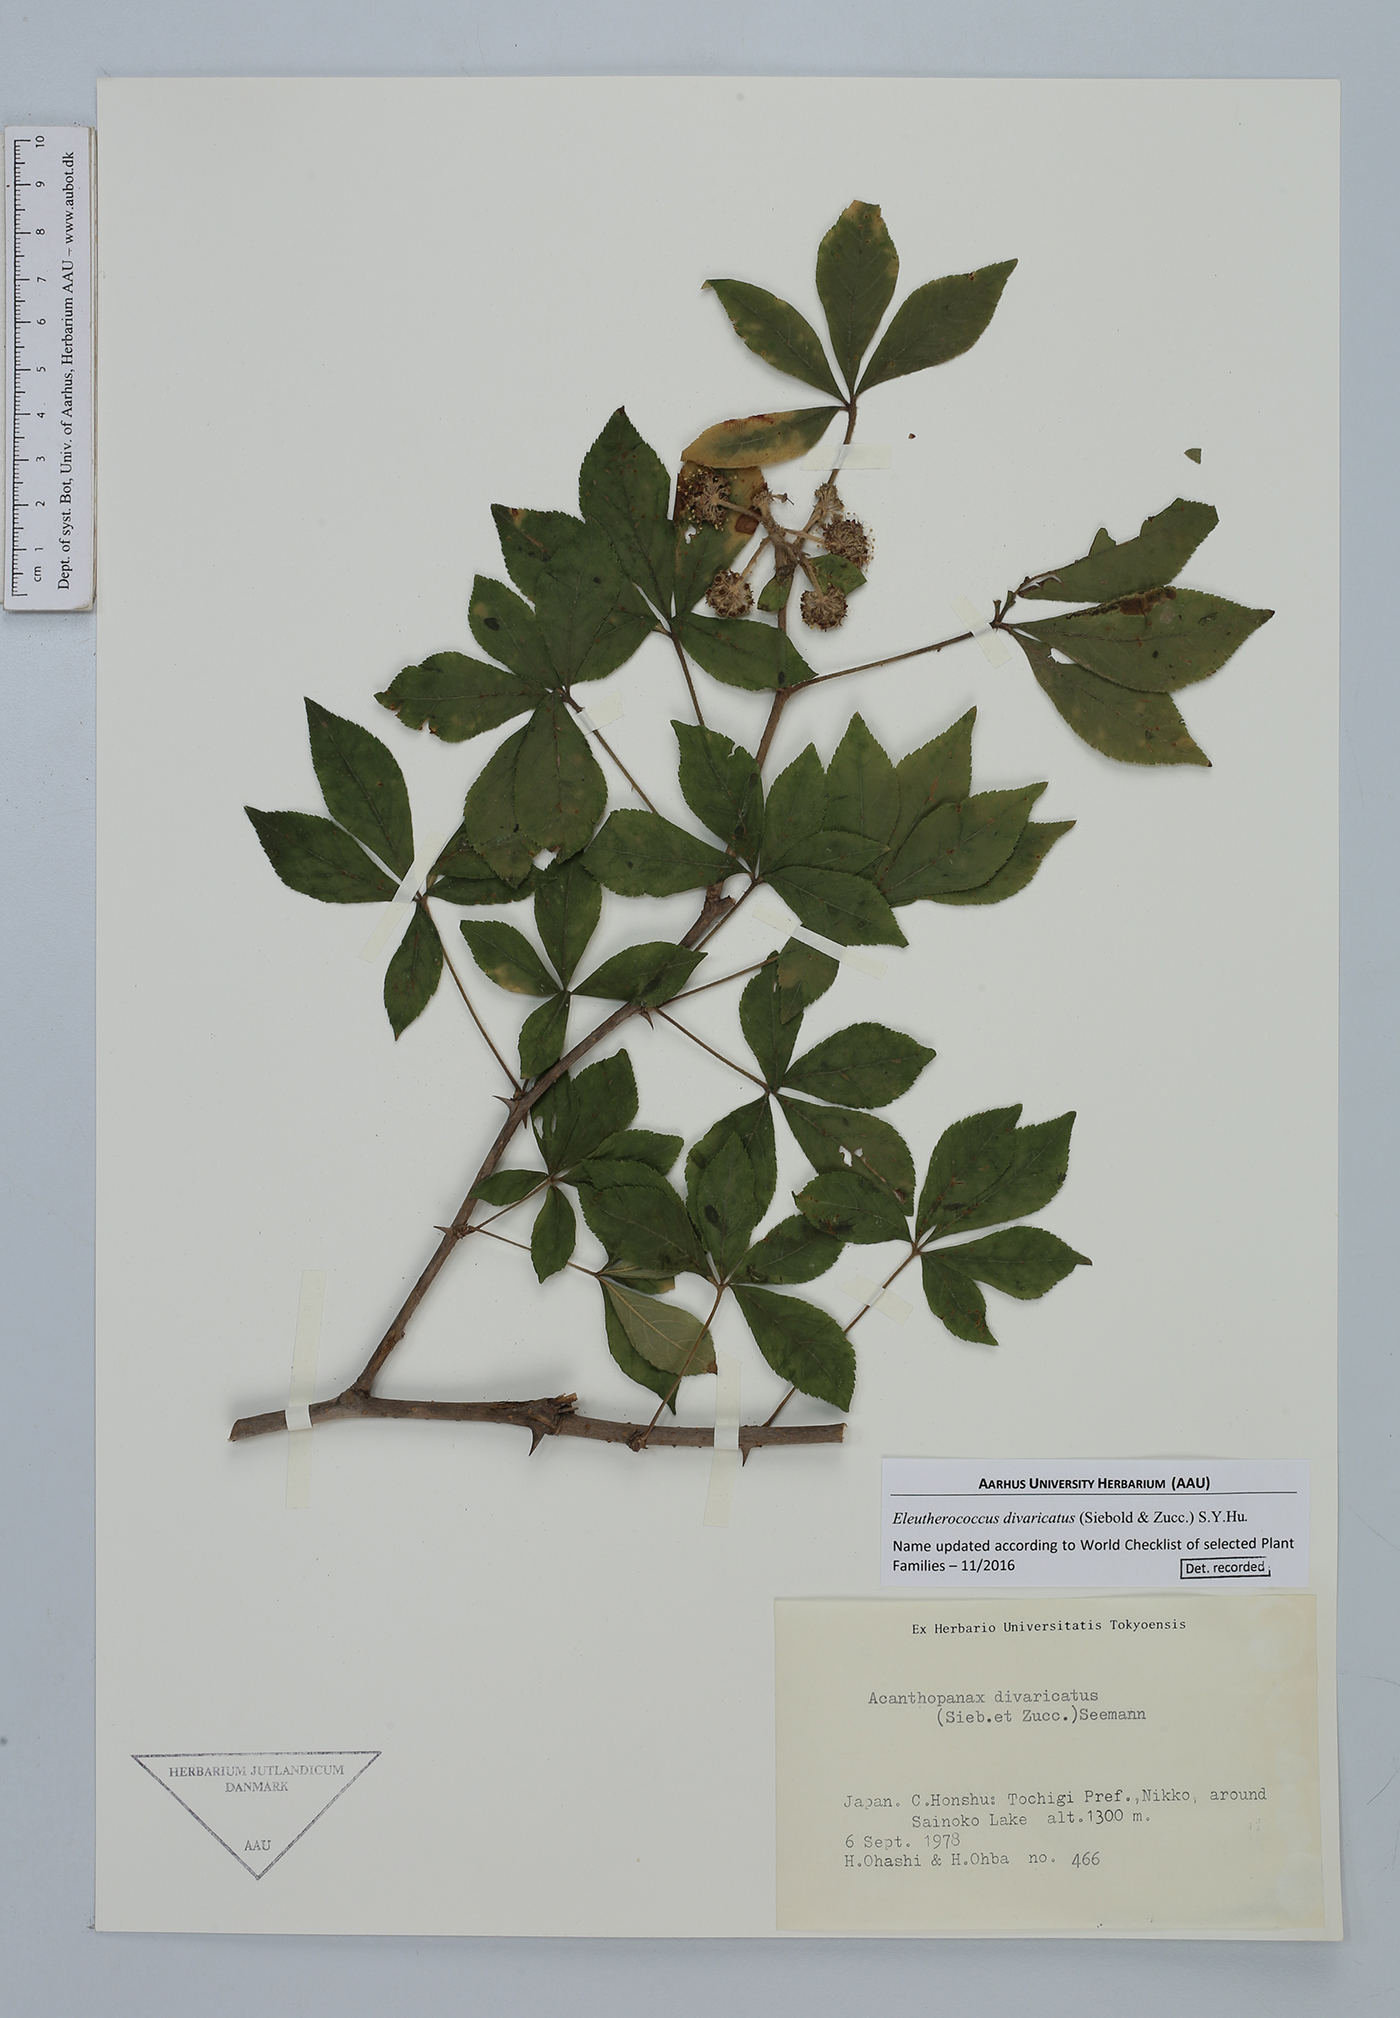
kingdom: Plantae
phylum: Tracheophyta
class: Magnoliopsida
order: Apiales
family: Araliaceae
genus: Eleutherococcus
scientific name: Eleutherococcus divaricatus
